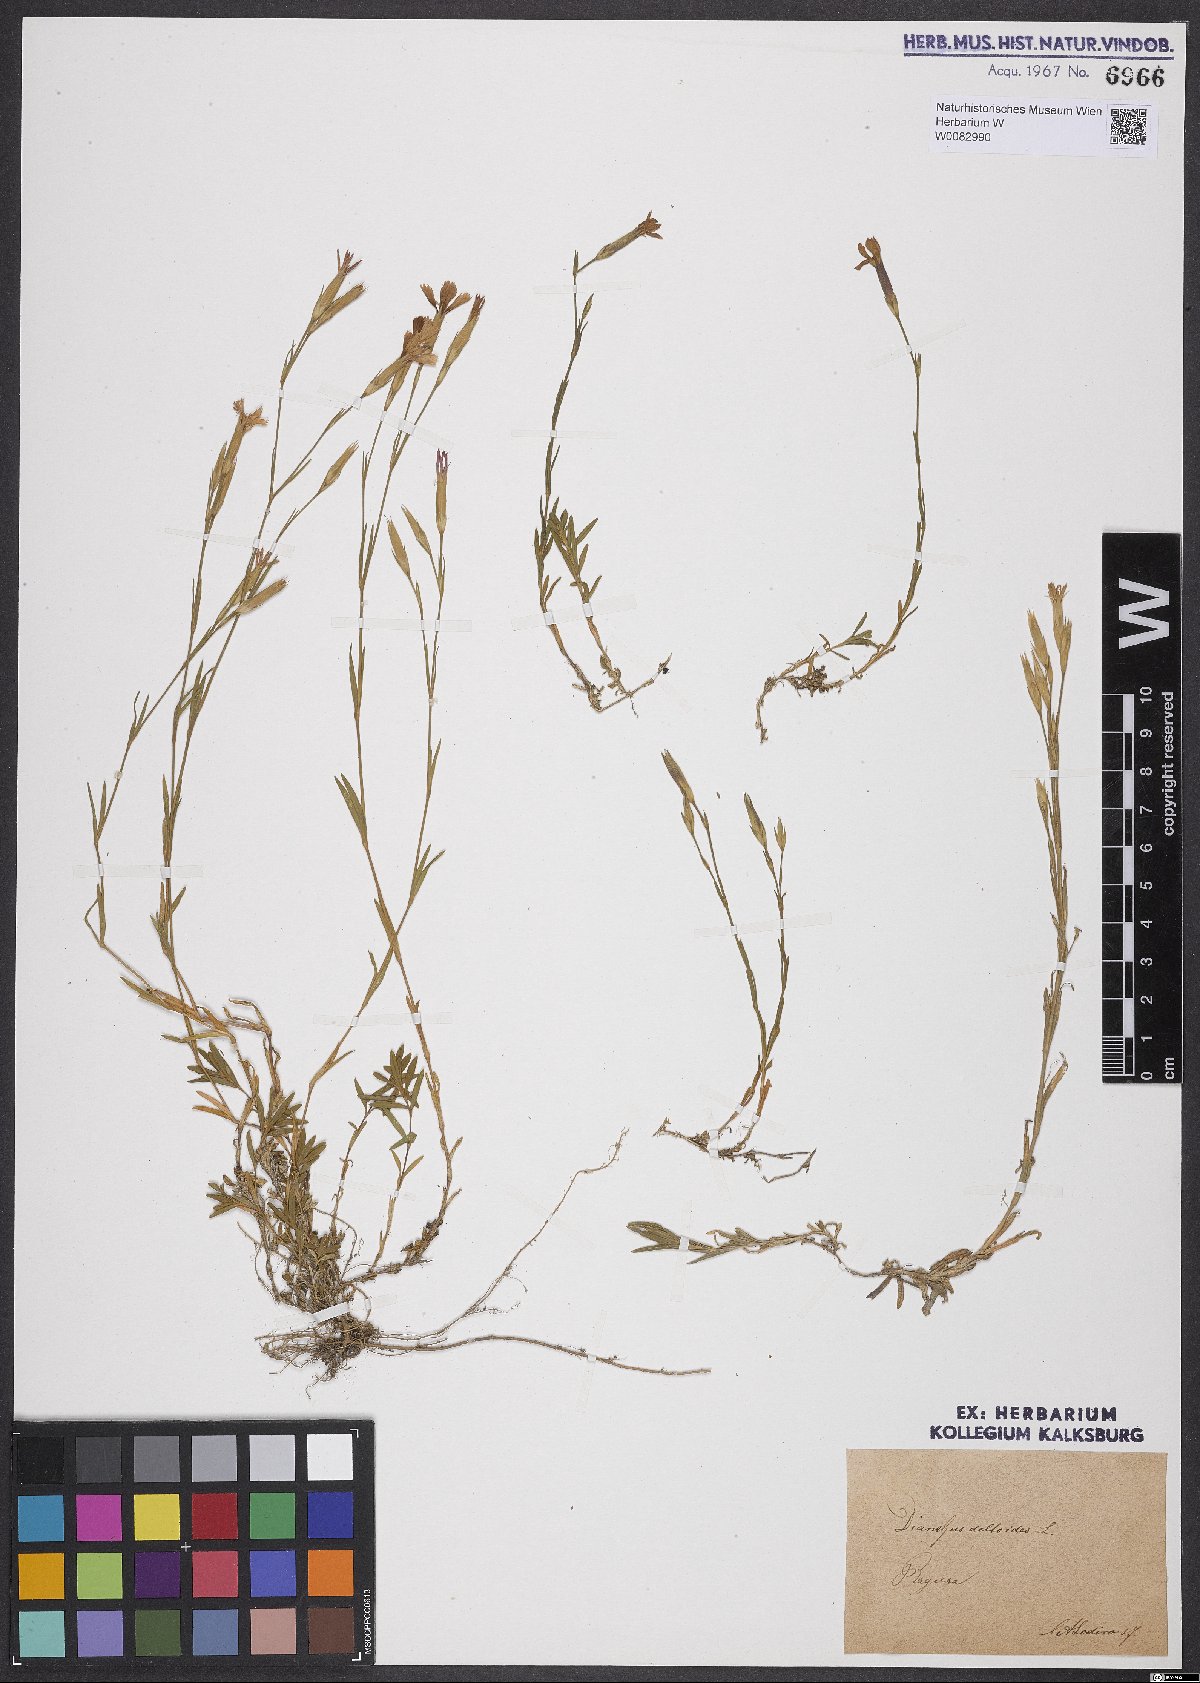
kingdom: Plantae
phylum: Tracheophyta
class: Magnoliopsida
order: Caryophyllales
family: Caryophyllaceae
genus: Dianthus
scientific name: Dianthus deltoides
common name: Maiden pink
